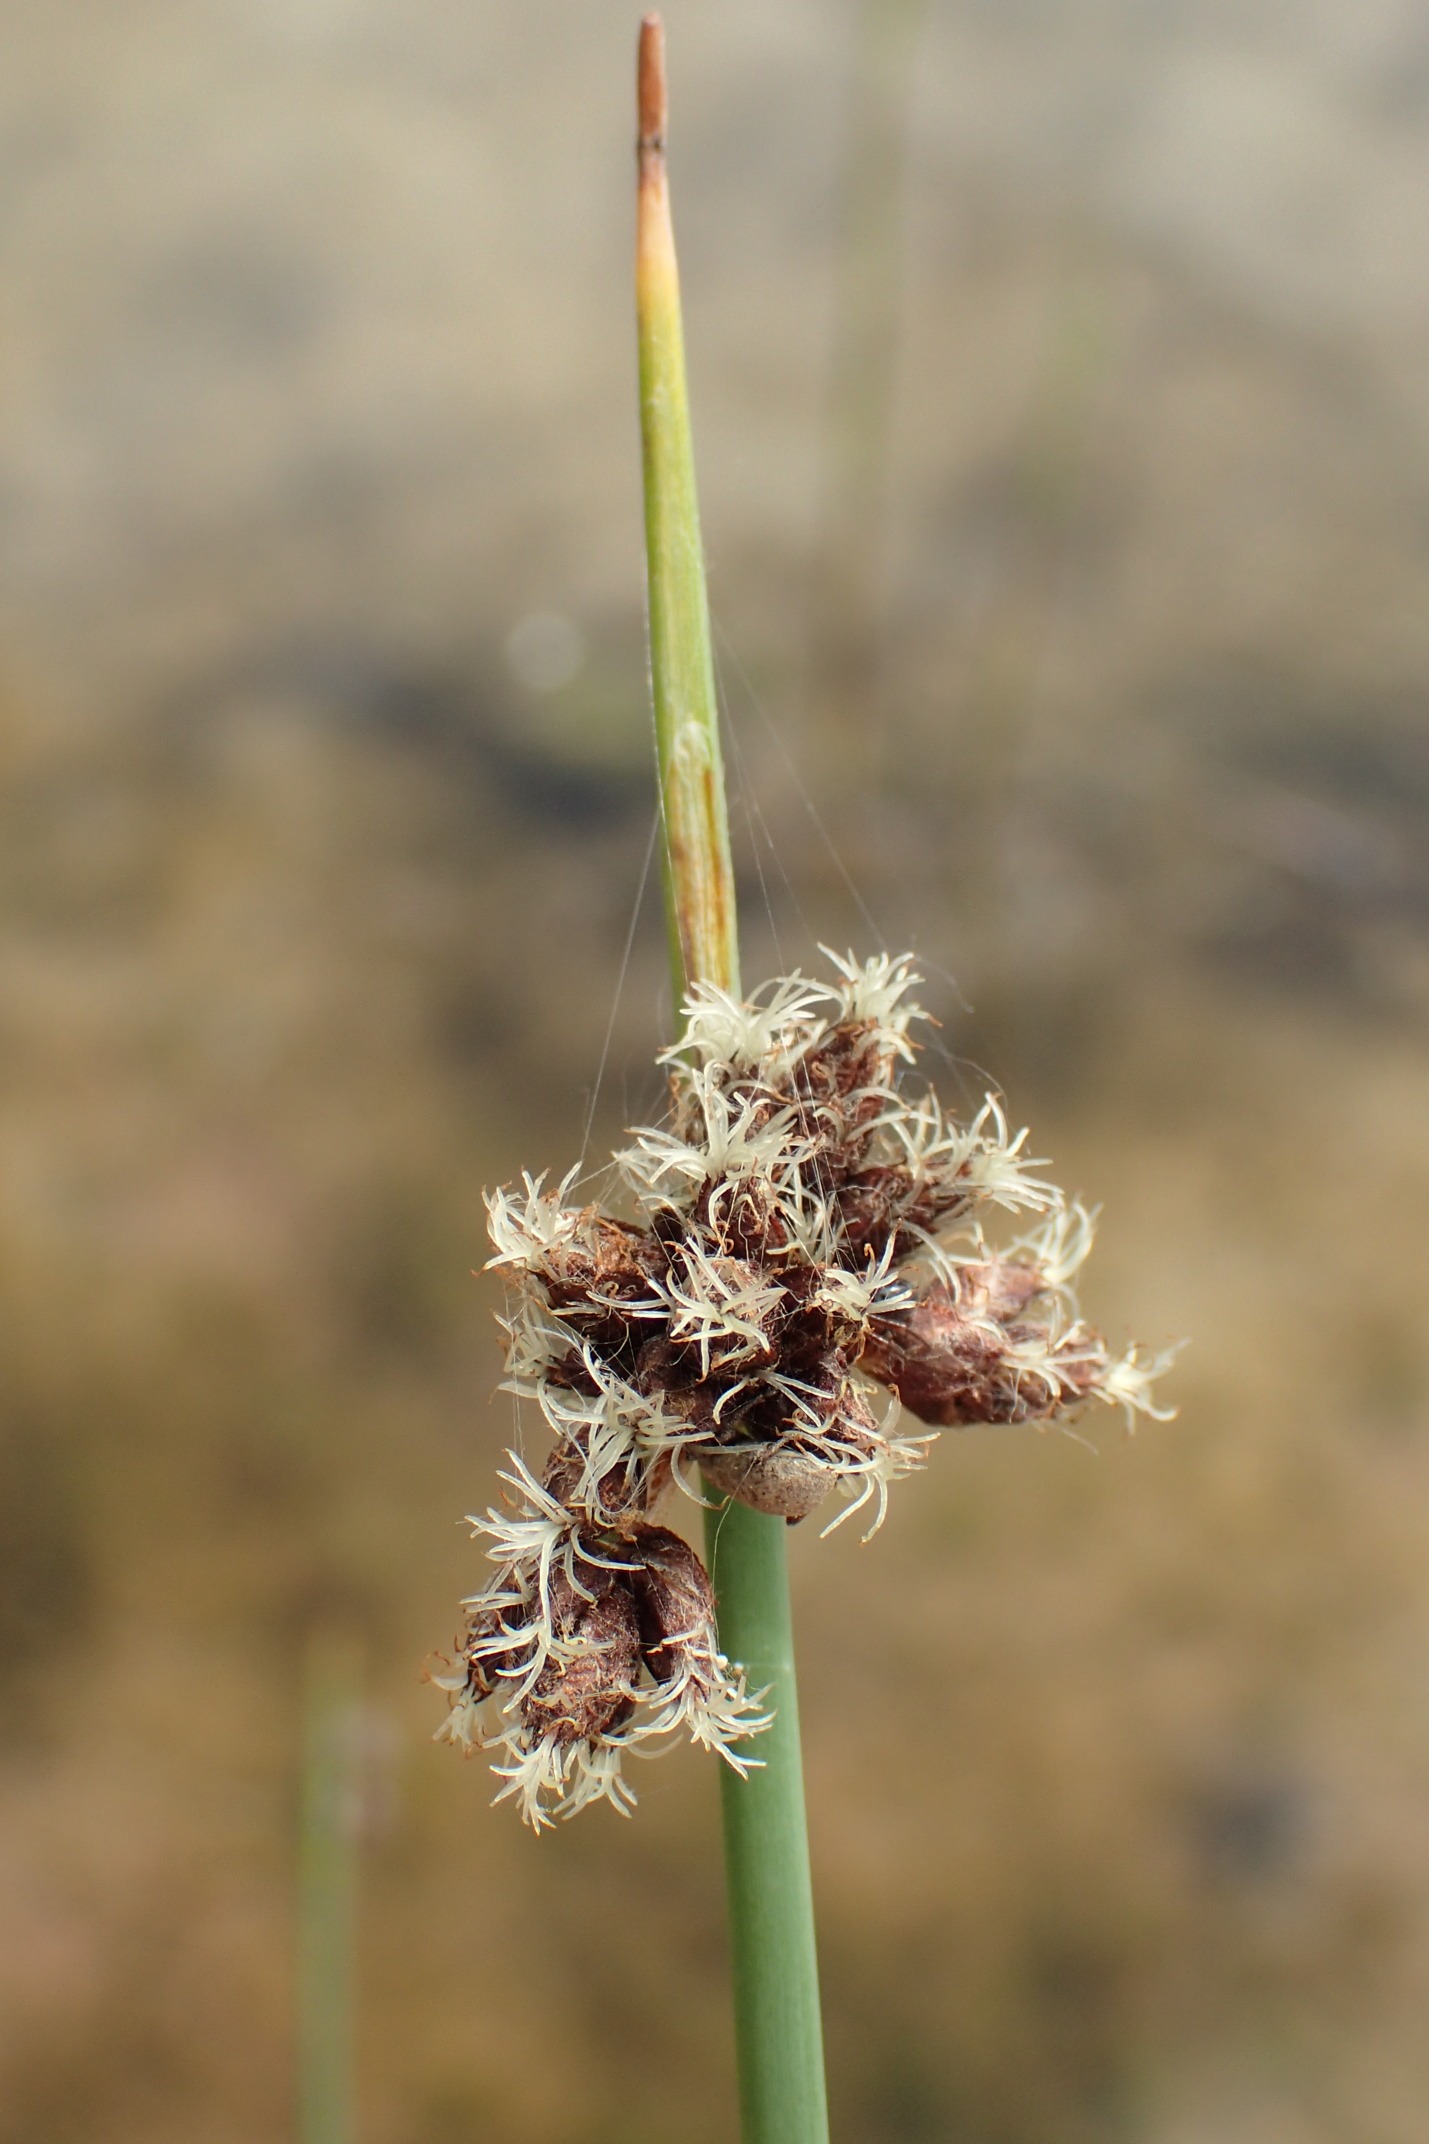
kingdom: Plantae
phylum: Tracheophyta
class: Liliopsida
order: Poales
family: Cyperaceae
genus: Schoenoplectus
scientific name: Schoenoplectus tabernaemontani
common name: Blågrøn kogleaks
